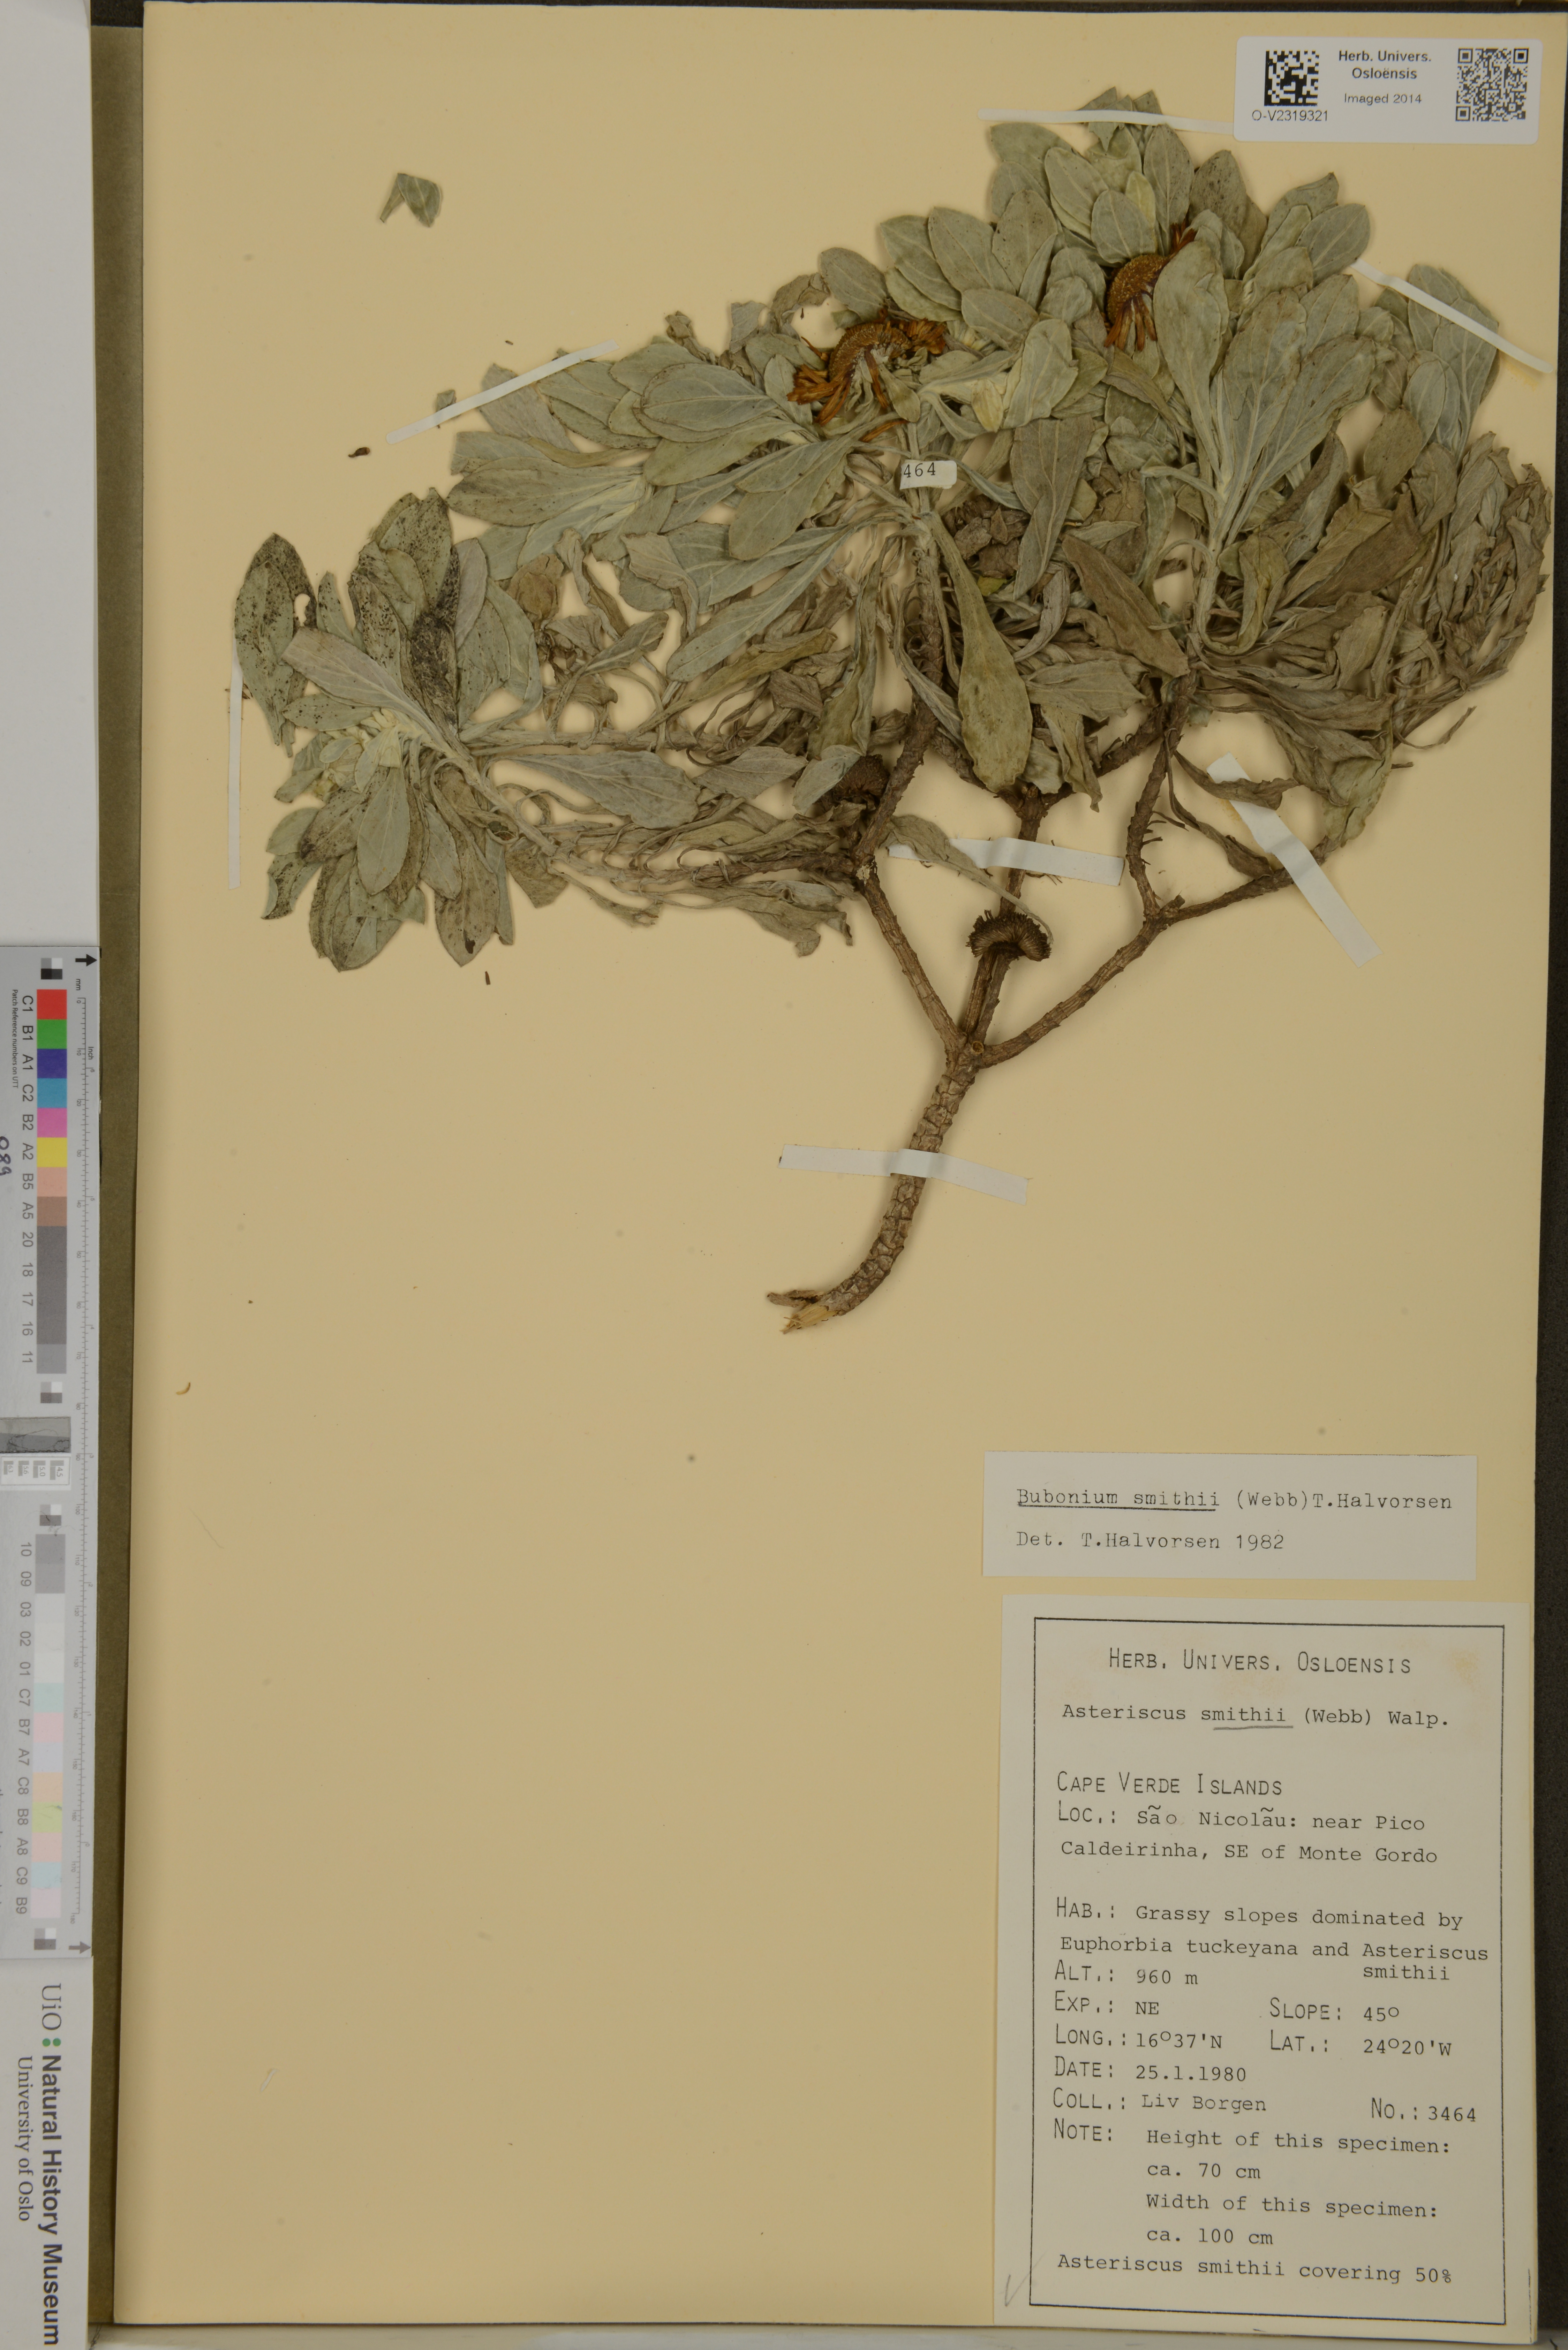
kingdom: Plantae
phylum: Tracheophyta
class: Magnoliopsida
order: Asterales
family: Asteraceae
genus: Asteriscus
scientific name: Asteriscus smithii
